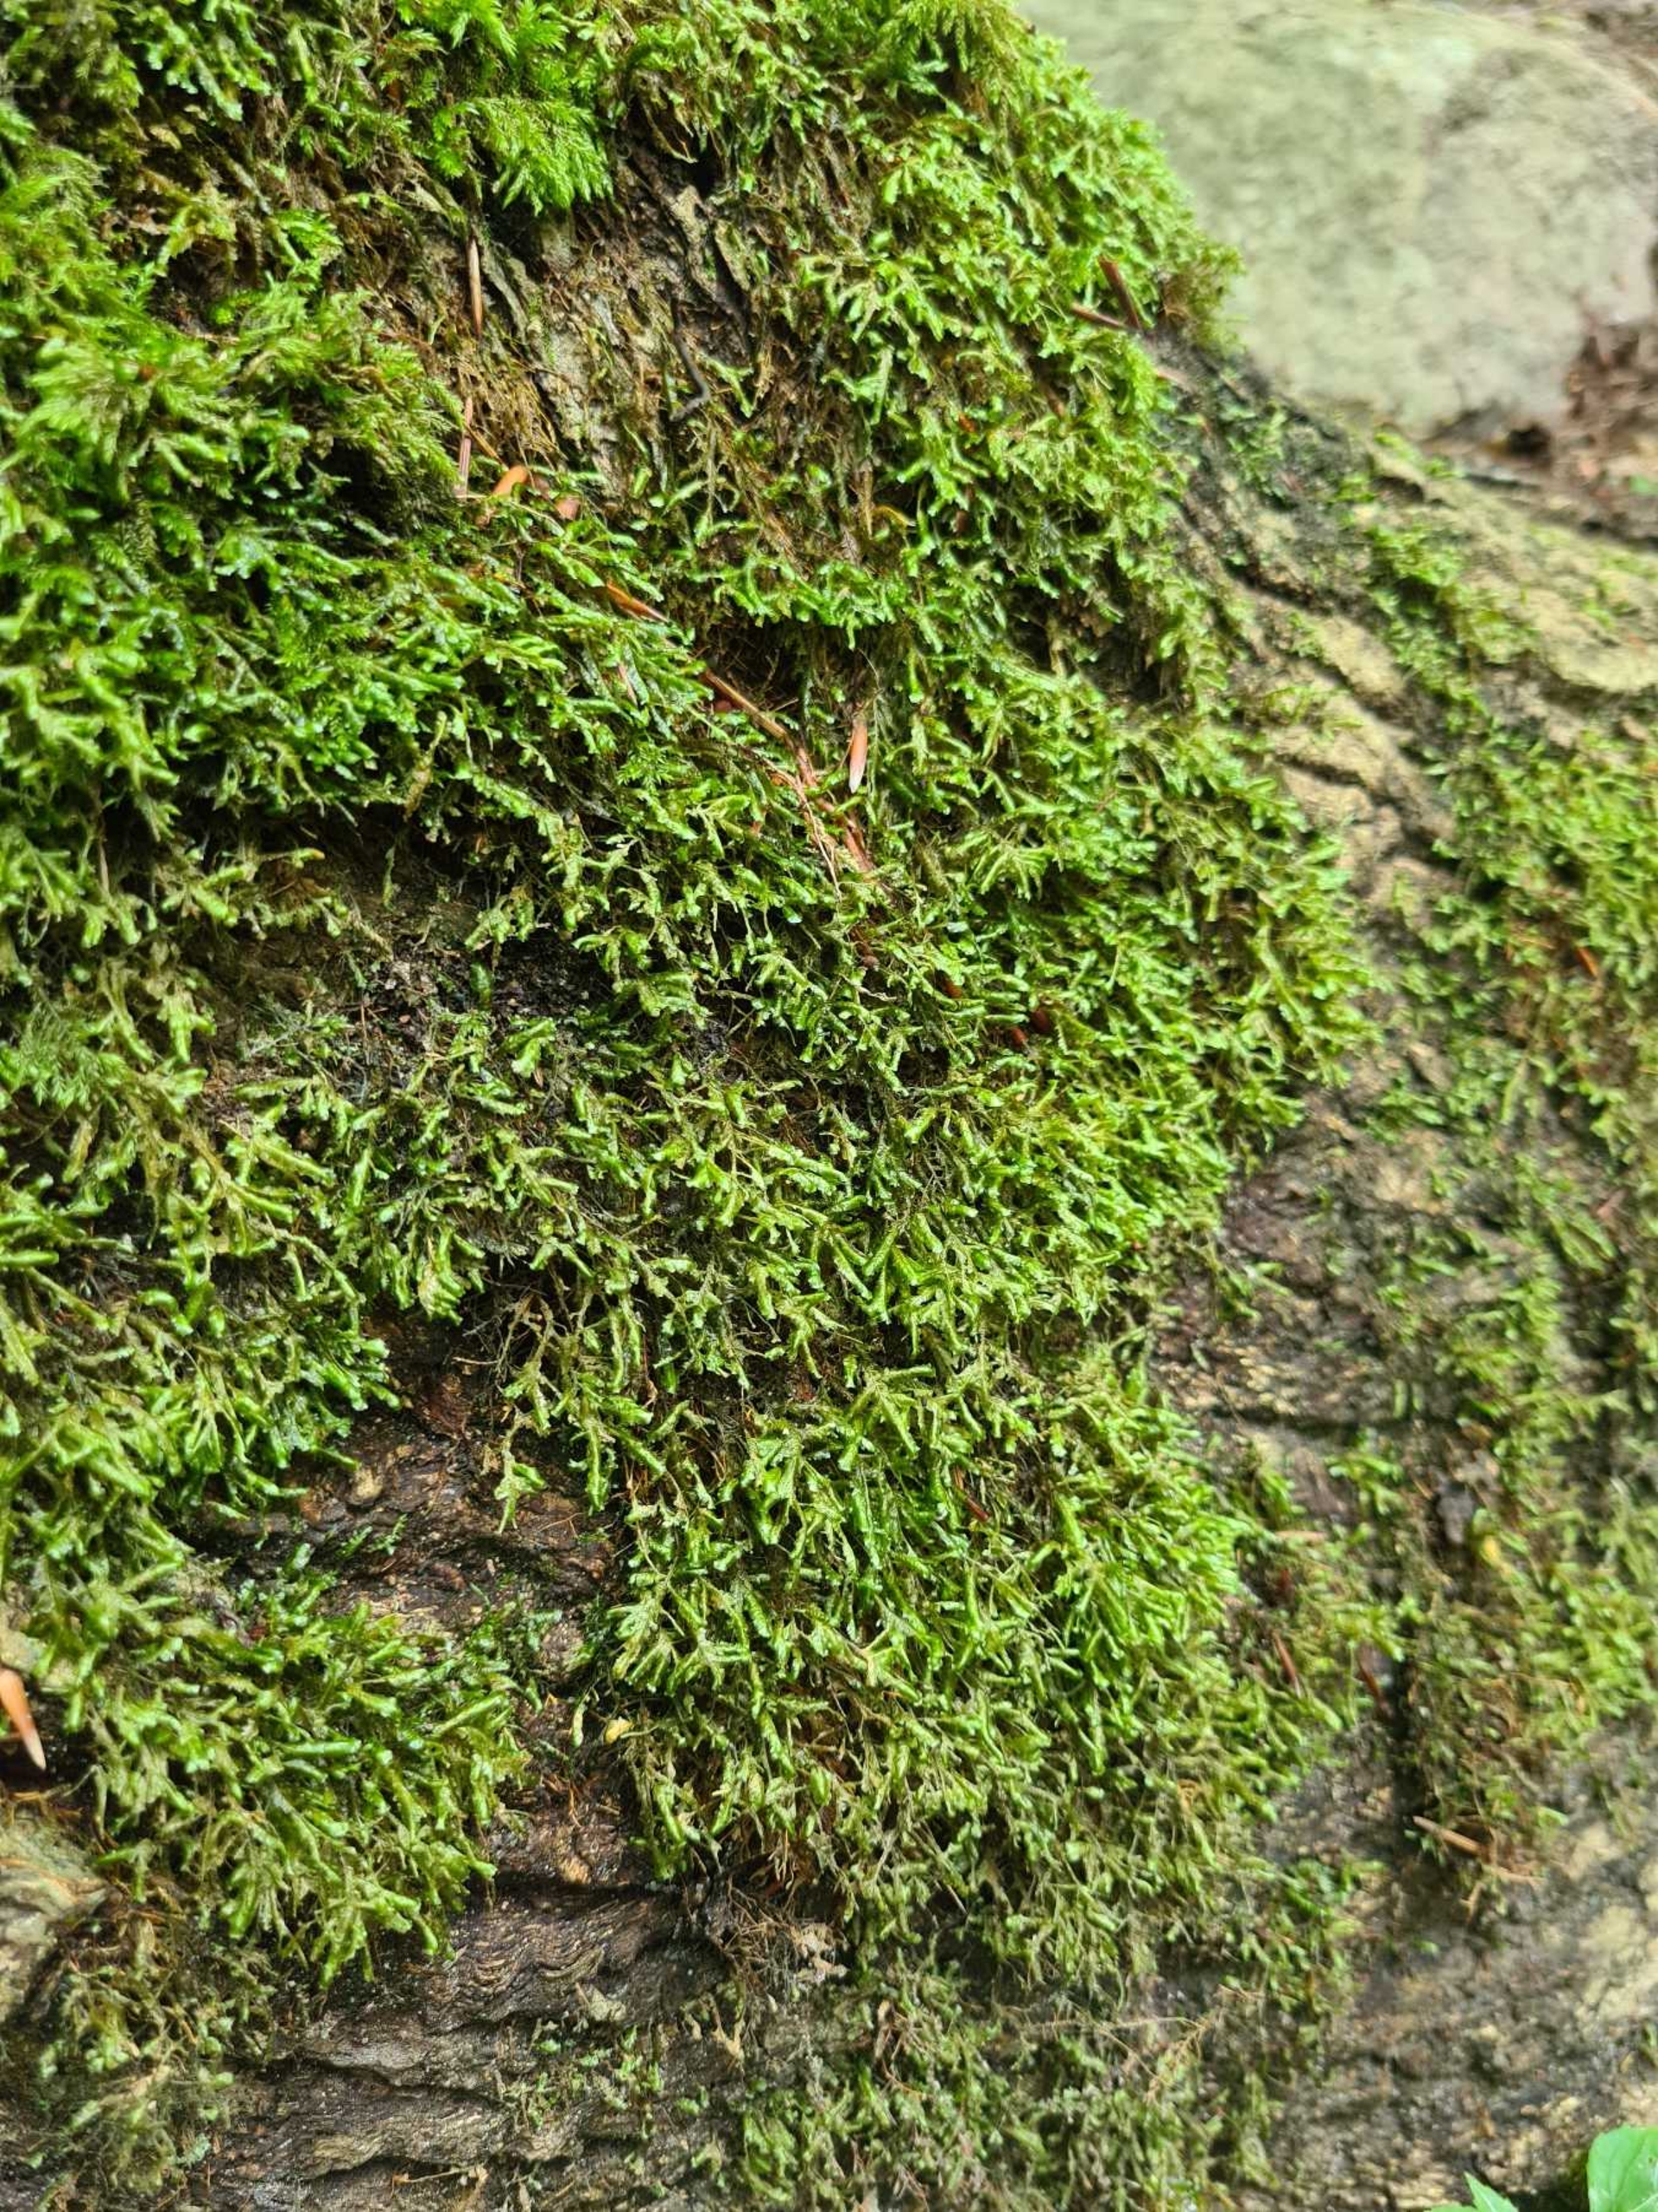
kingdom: Plantae
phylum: Bryophyta
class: Bryopsida
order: Hypnales
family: Neckeraceae
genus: Homalia
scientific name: Homalia trichomanoides
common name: Skov-tungemos
